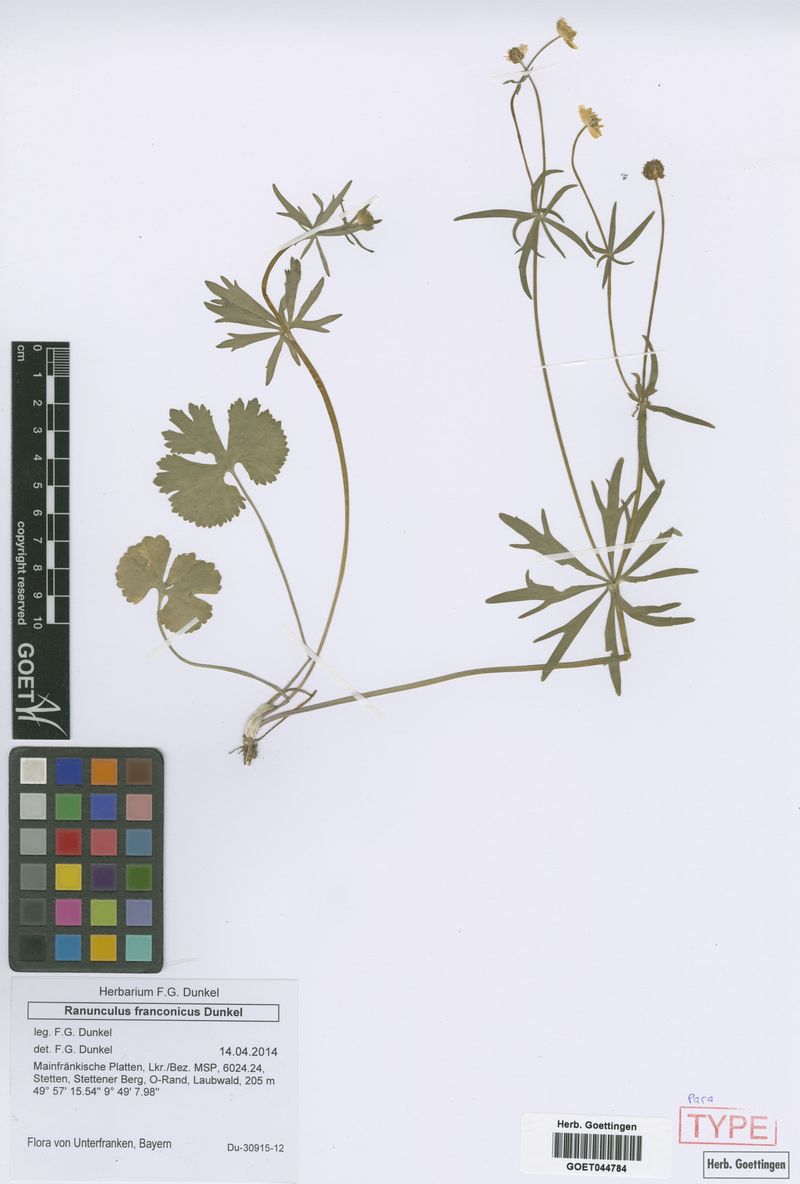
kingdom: Plantae
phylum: Tracheophyta
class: Magnoliopsida
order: Ranunculales
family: Ranunculaceae
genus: Ranunculus
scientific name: Ranunculus franconicus
